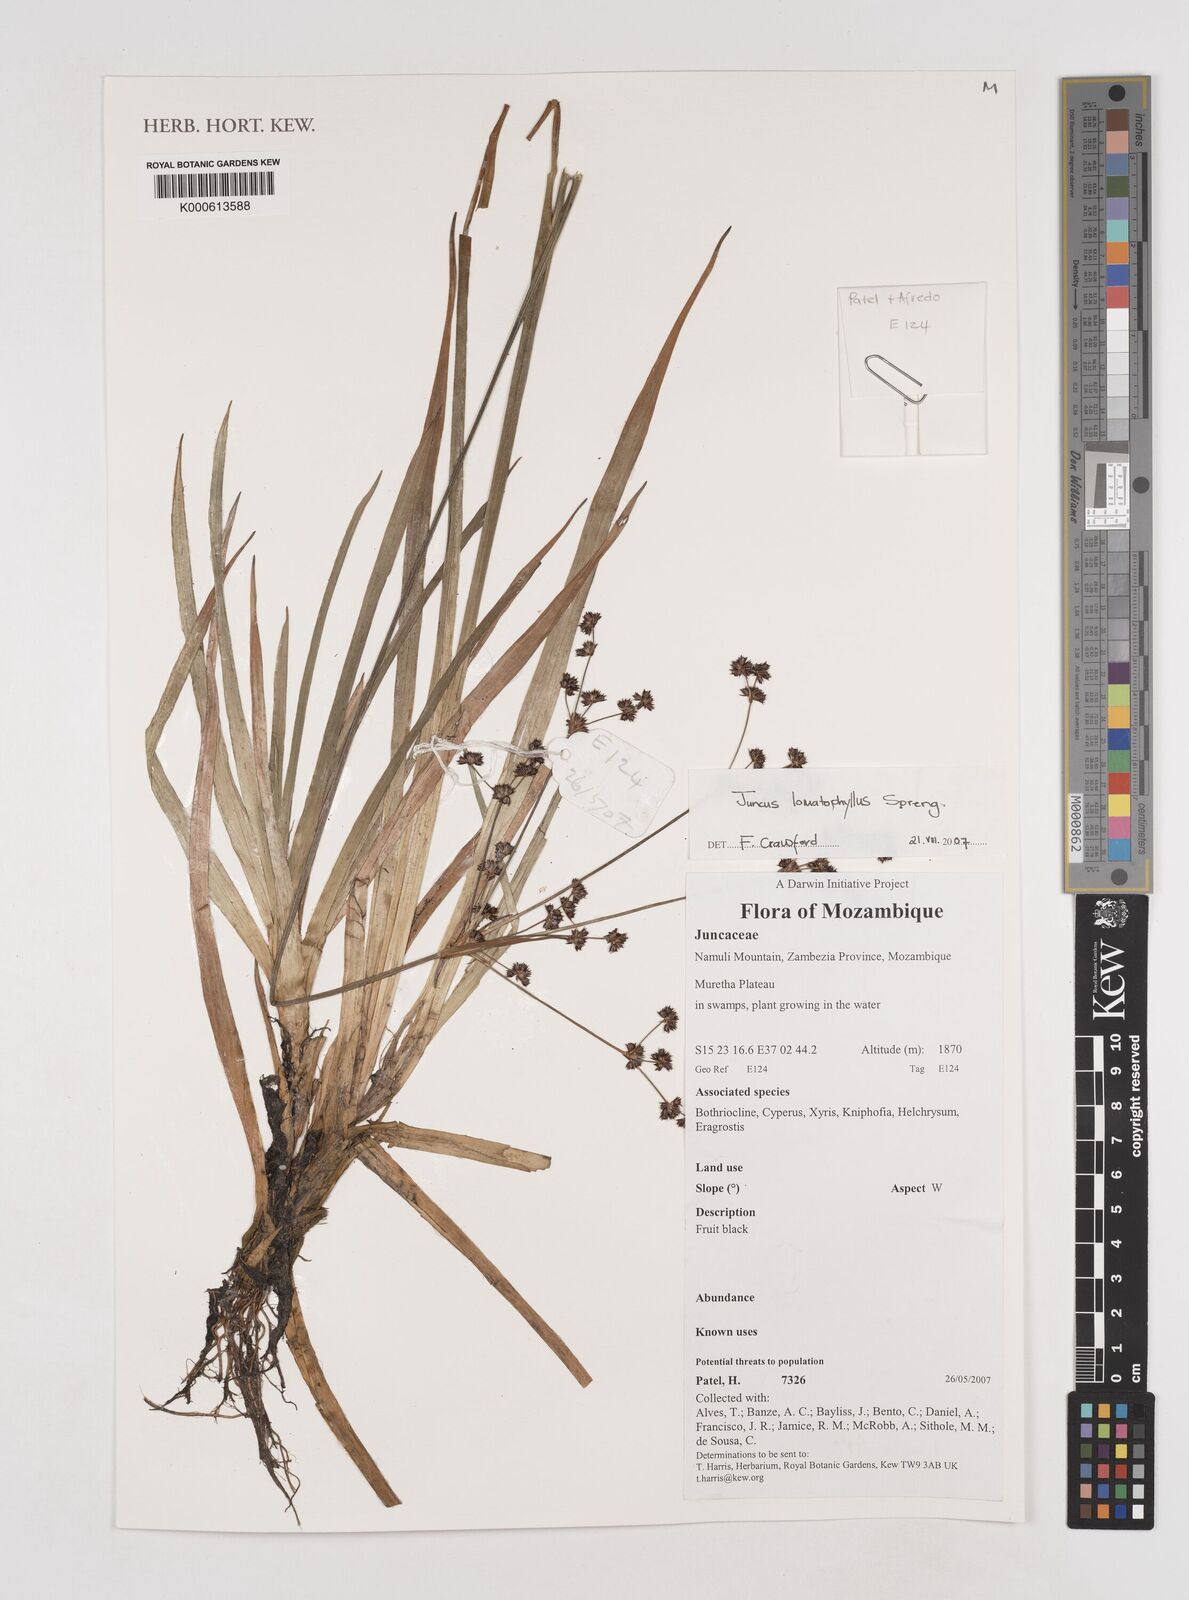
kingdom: Plantae
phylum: Tracheophyta
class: Liliopsida
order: Poales
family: Juncaceae
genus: Juncus
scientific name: Juncus lomatophyllus
